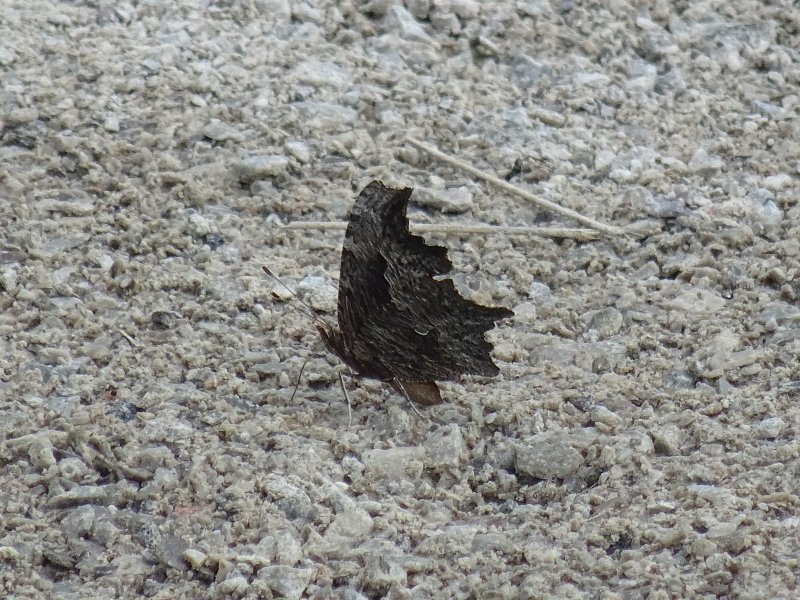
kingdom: Animalia
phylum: Arthropoda
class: Insecta
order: Lepidoptera
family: Nymphalidae
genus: Polygonia
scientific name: Polygonia progne
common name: Gray Comma
